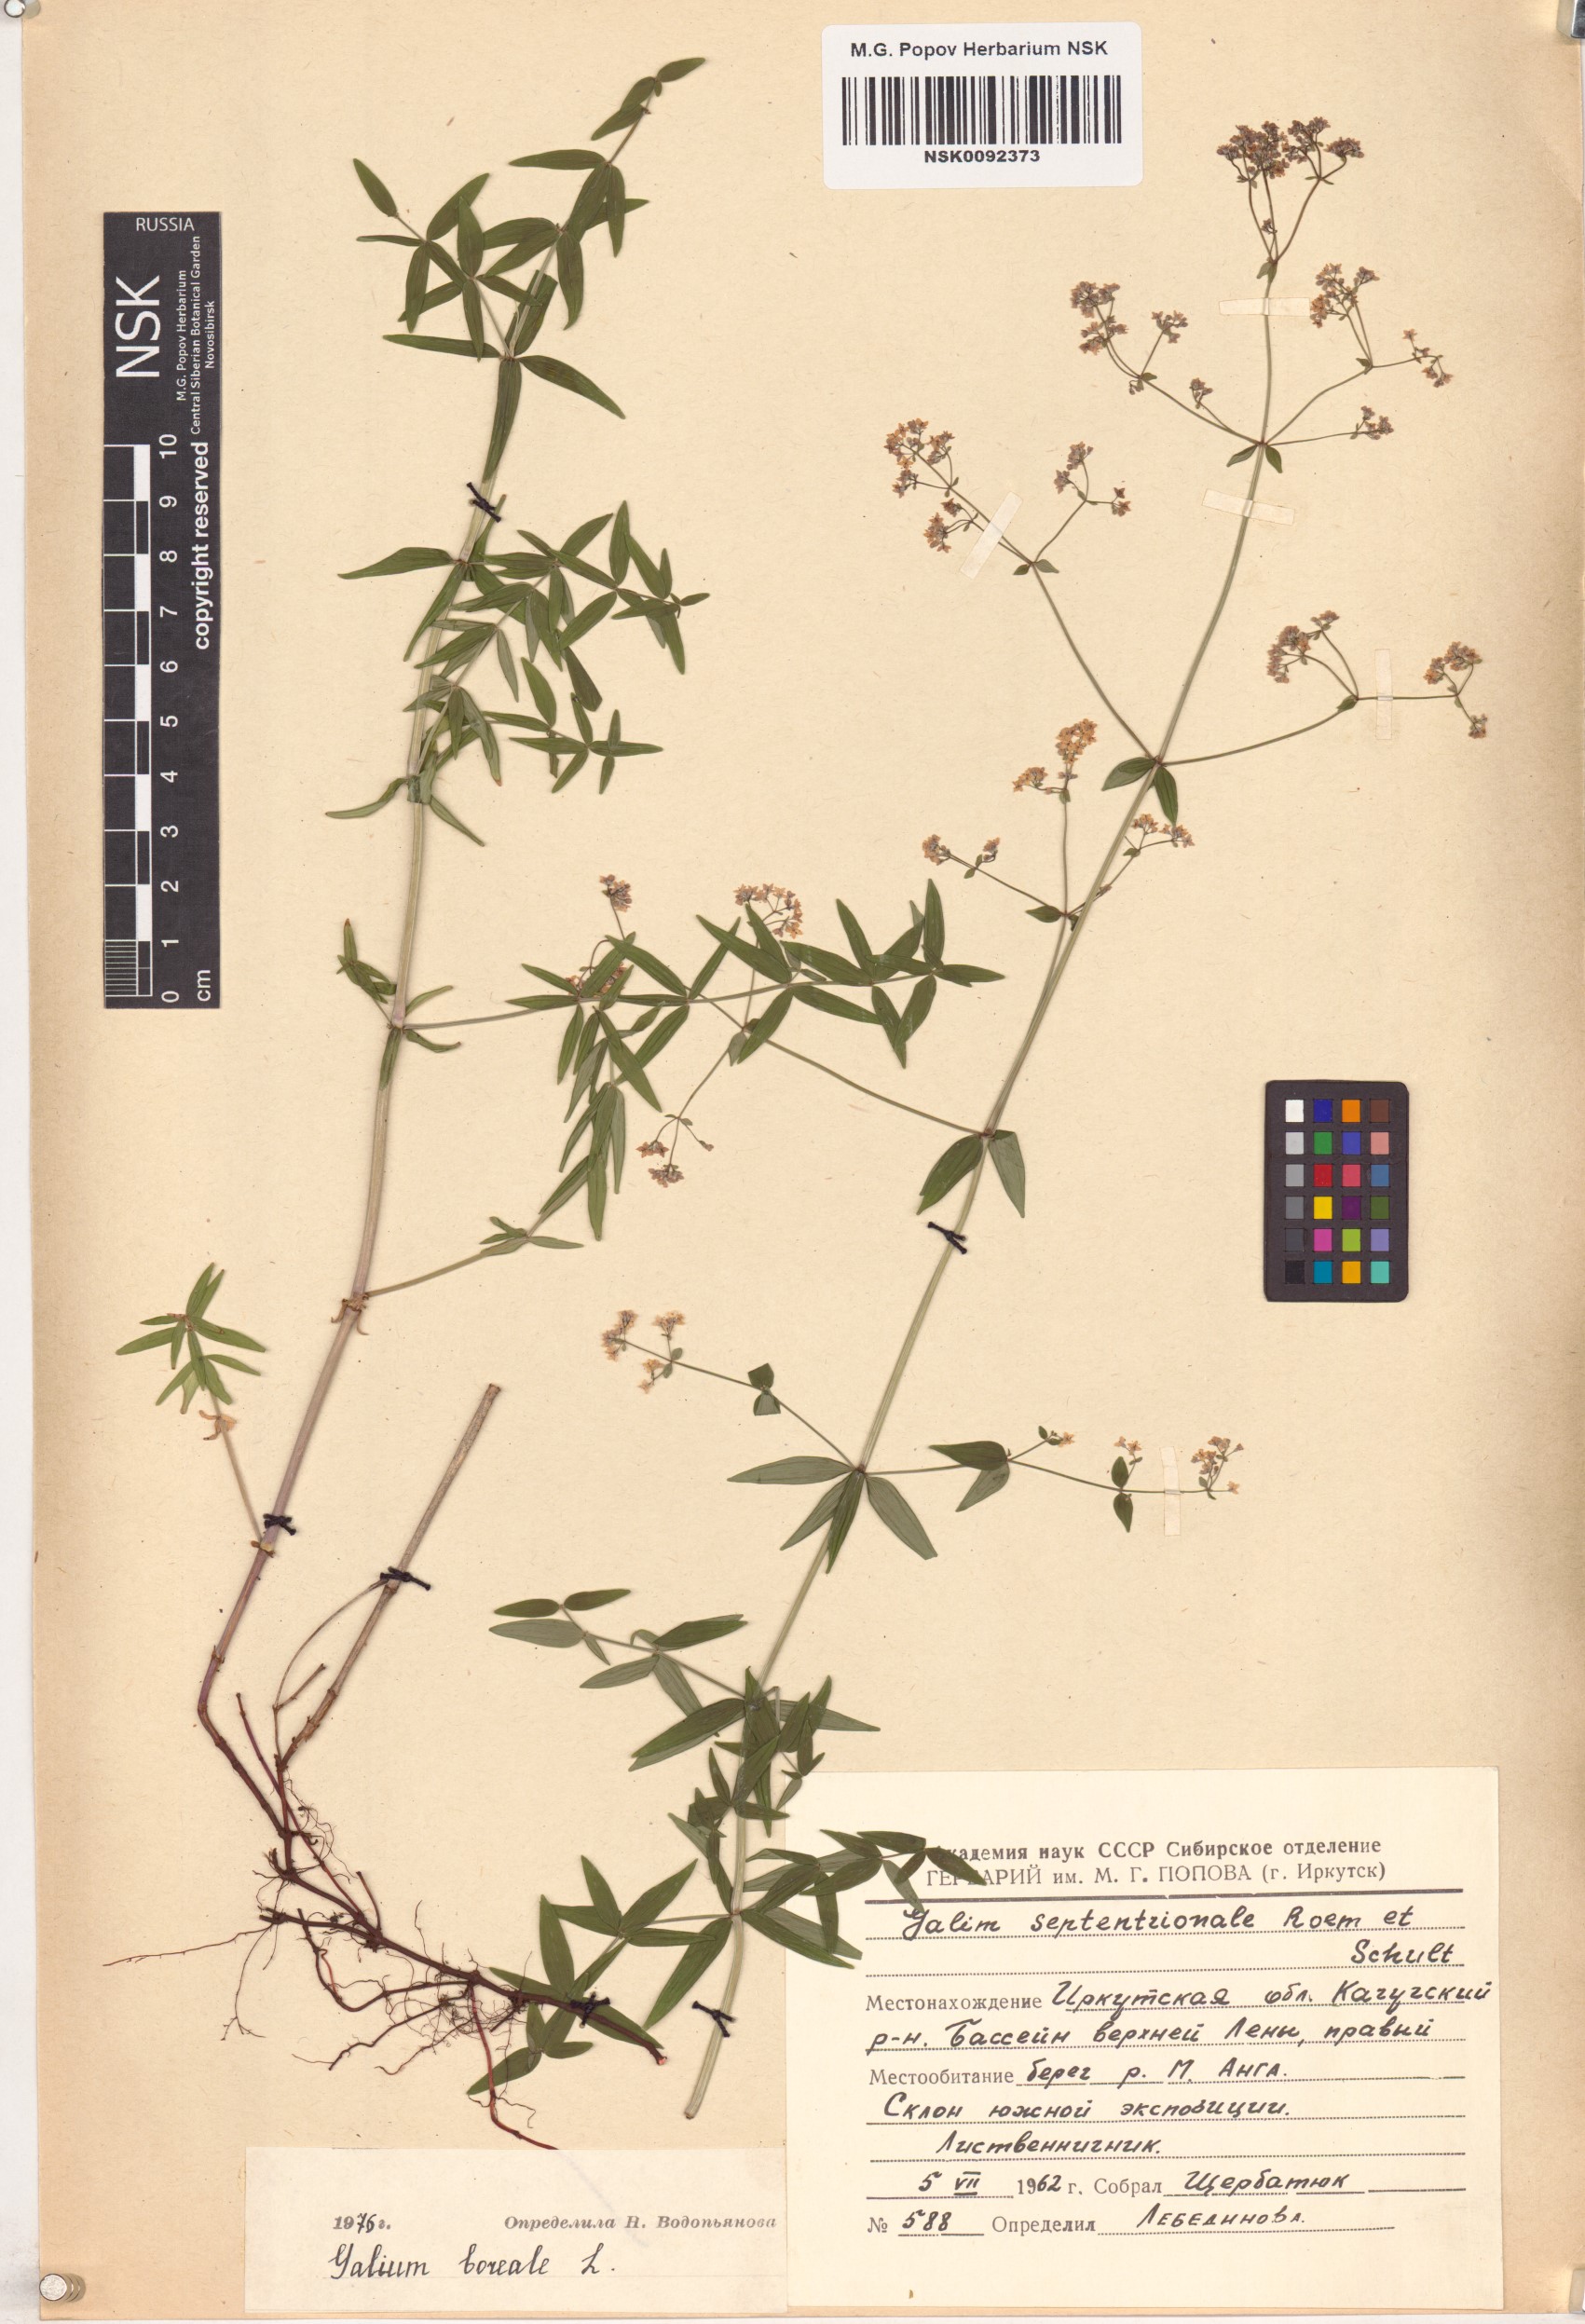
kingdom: Plantae
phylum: Tracheophyta
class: Magnoliopsida
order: Gentianales
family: Rubiaceae
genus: Galium
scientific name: Galium boreale
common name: Northern bedstraw
